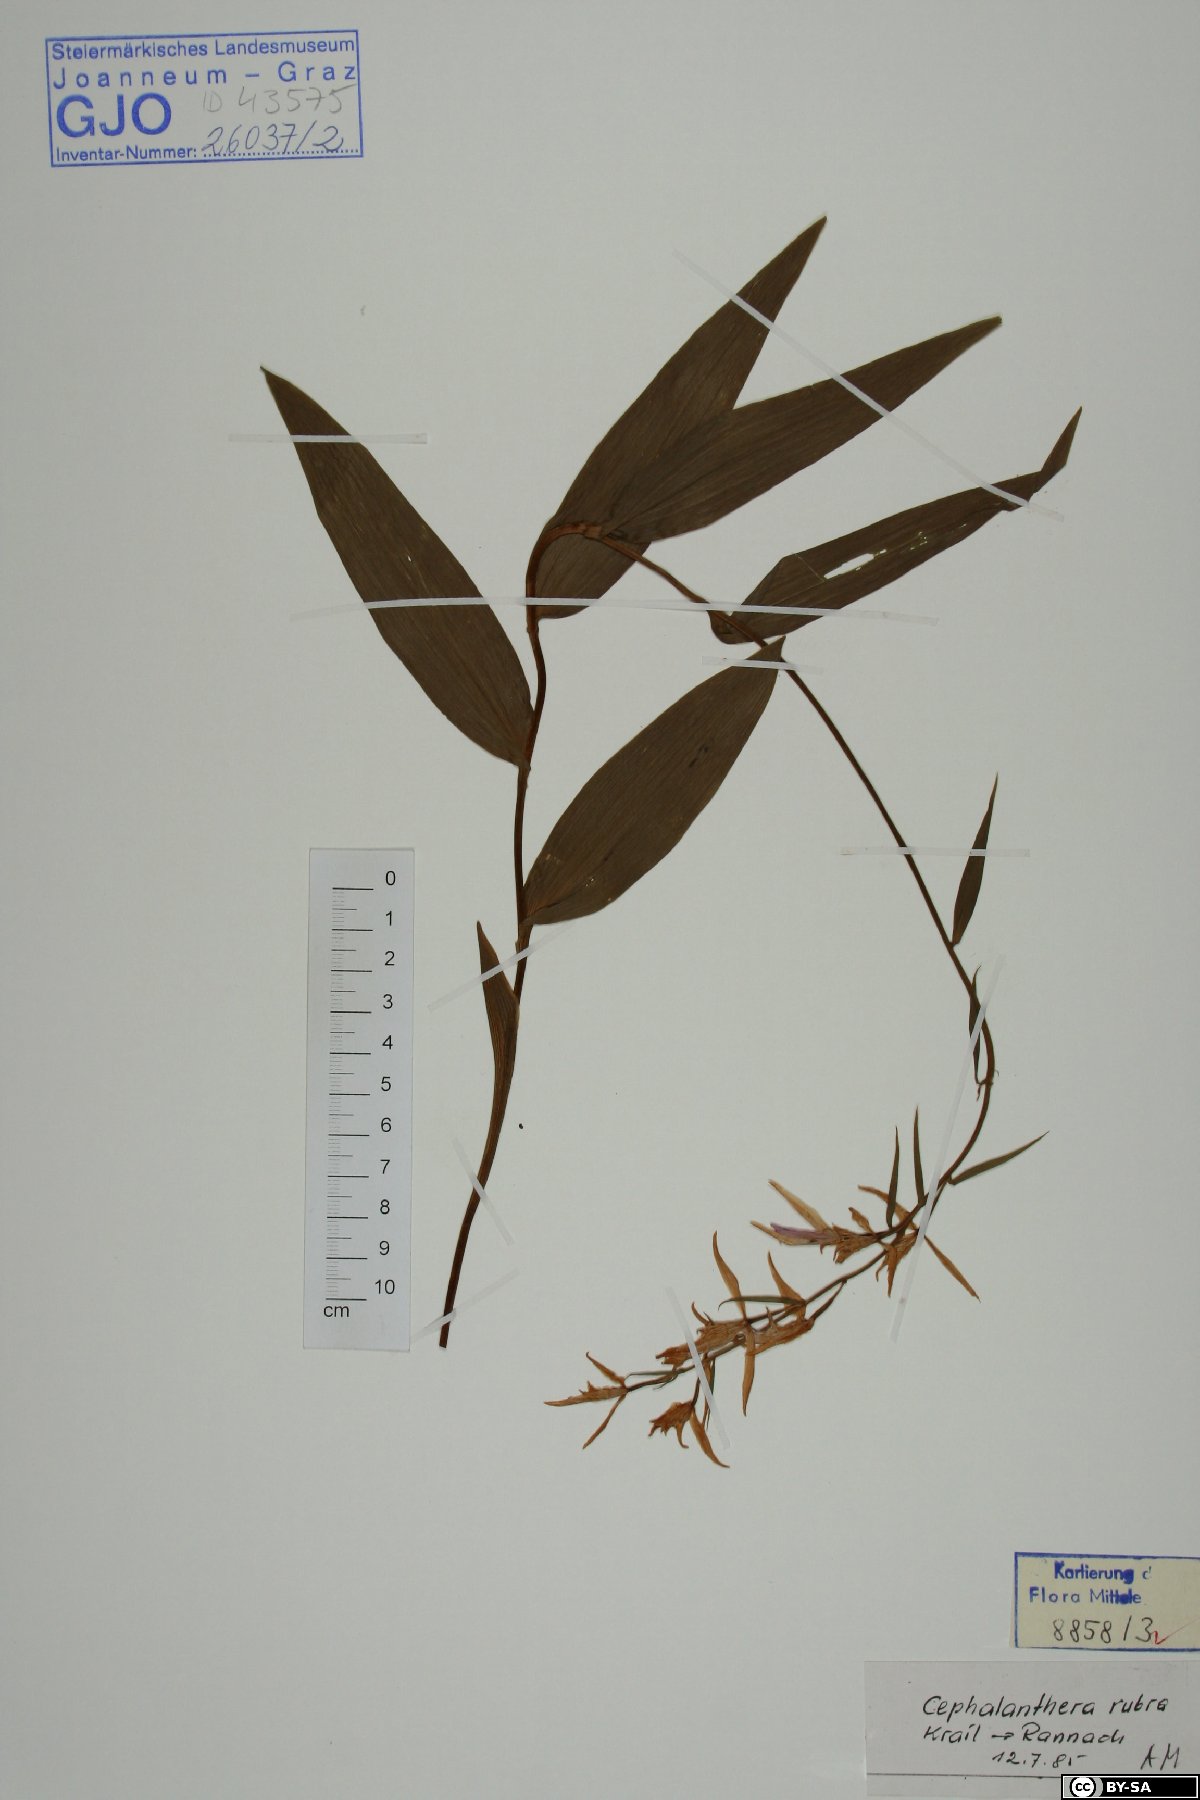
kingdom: Plantae
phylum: Tracheophyta
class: Liliopsida
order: Asparagales
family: Orchidaceae
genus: Cephalanthera
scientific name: Cephalanthera rubra
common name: Red helleborine
